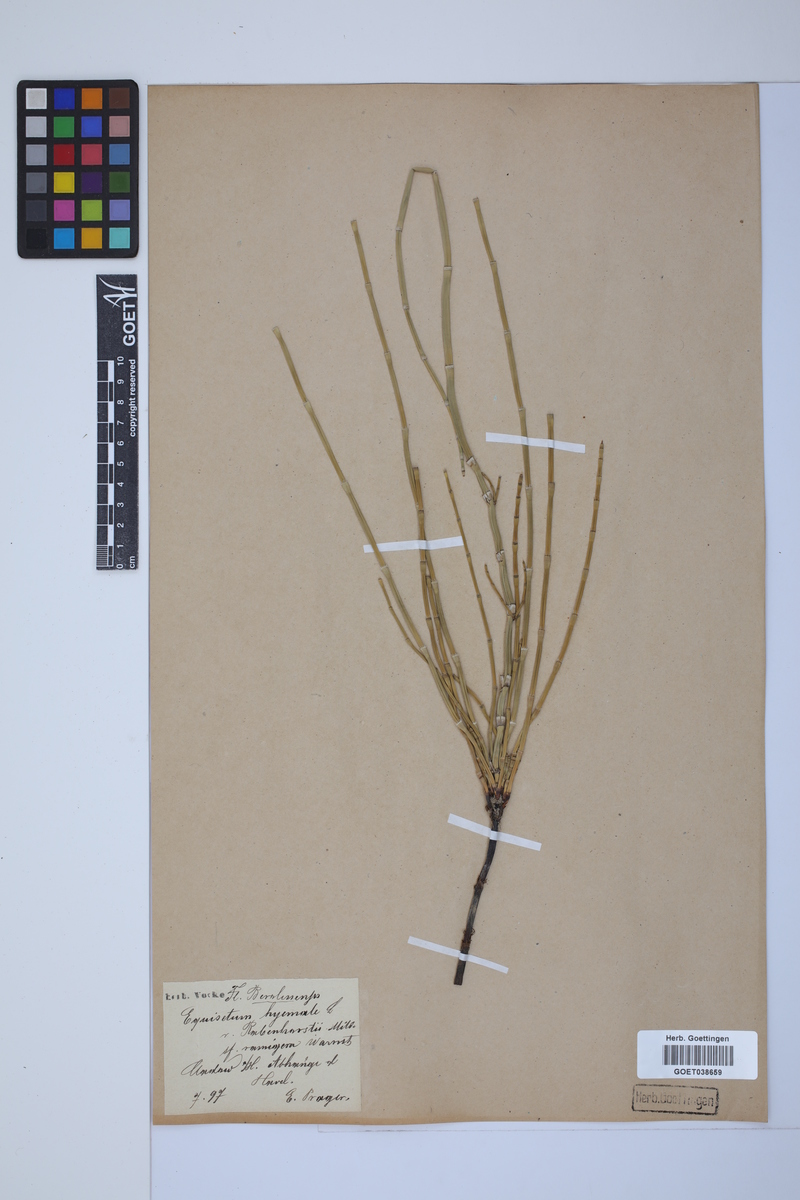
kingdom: Plantae
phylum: Tracheophyta
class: Polypodiopsida
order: Equisetales
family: Equisetaceae
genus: Equisetum
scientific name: Equisetum hyemale
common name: Rough horsetail
